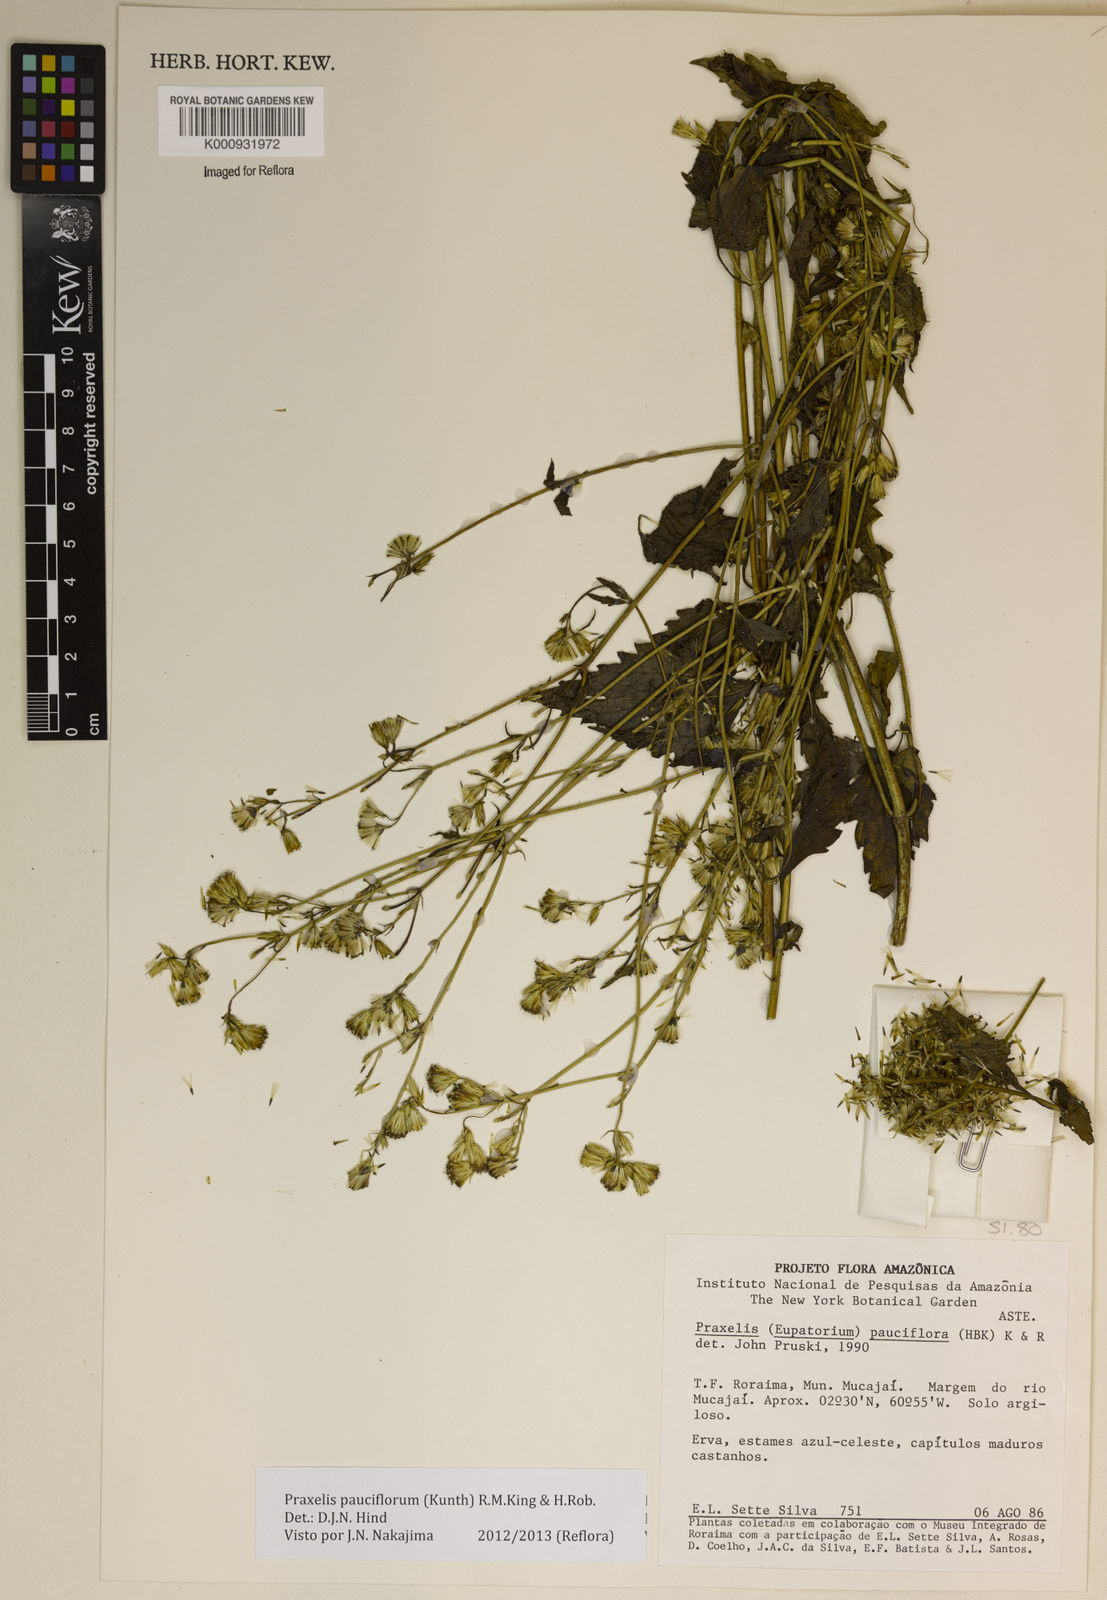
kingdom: Plantae
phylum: Tracheophyta
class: Magnoliopsida
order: Asterales
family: Asteraceae
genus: Praxelis
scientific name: Praxelis diffusa
